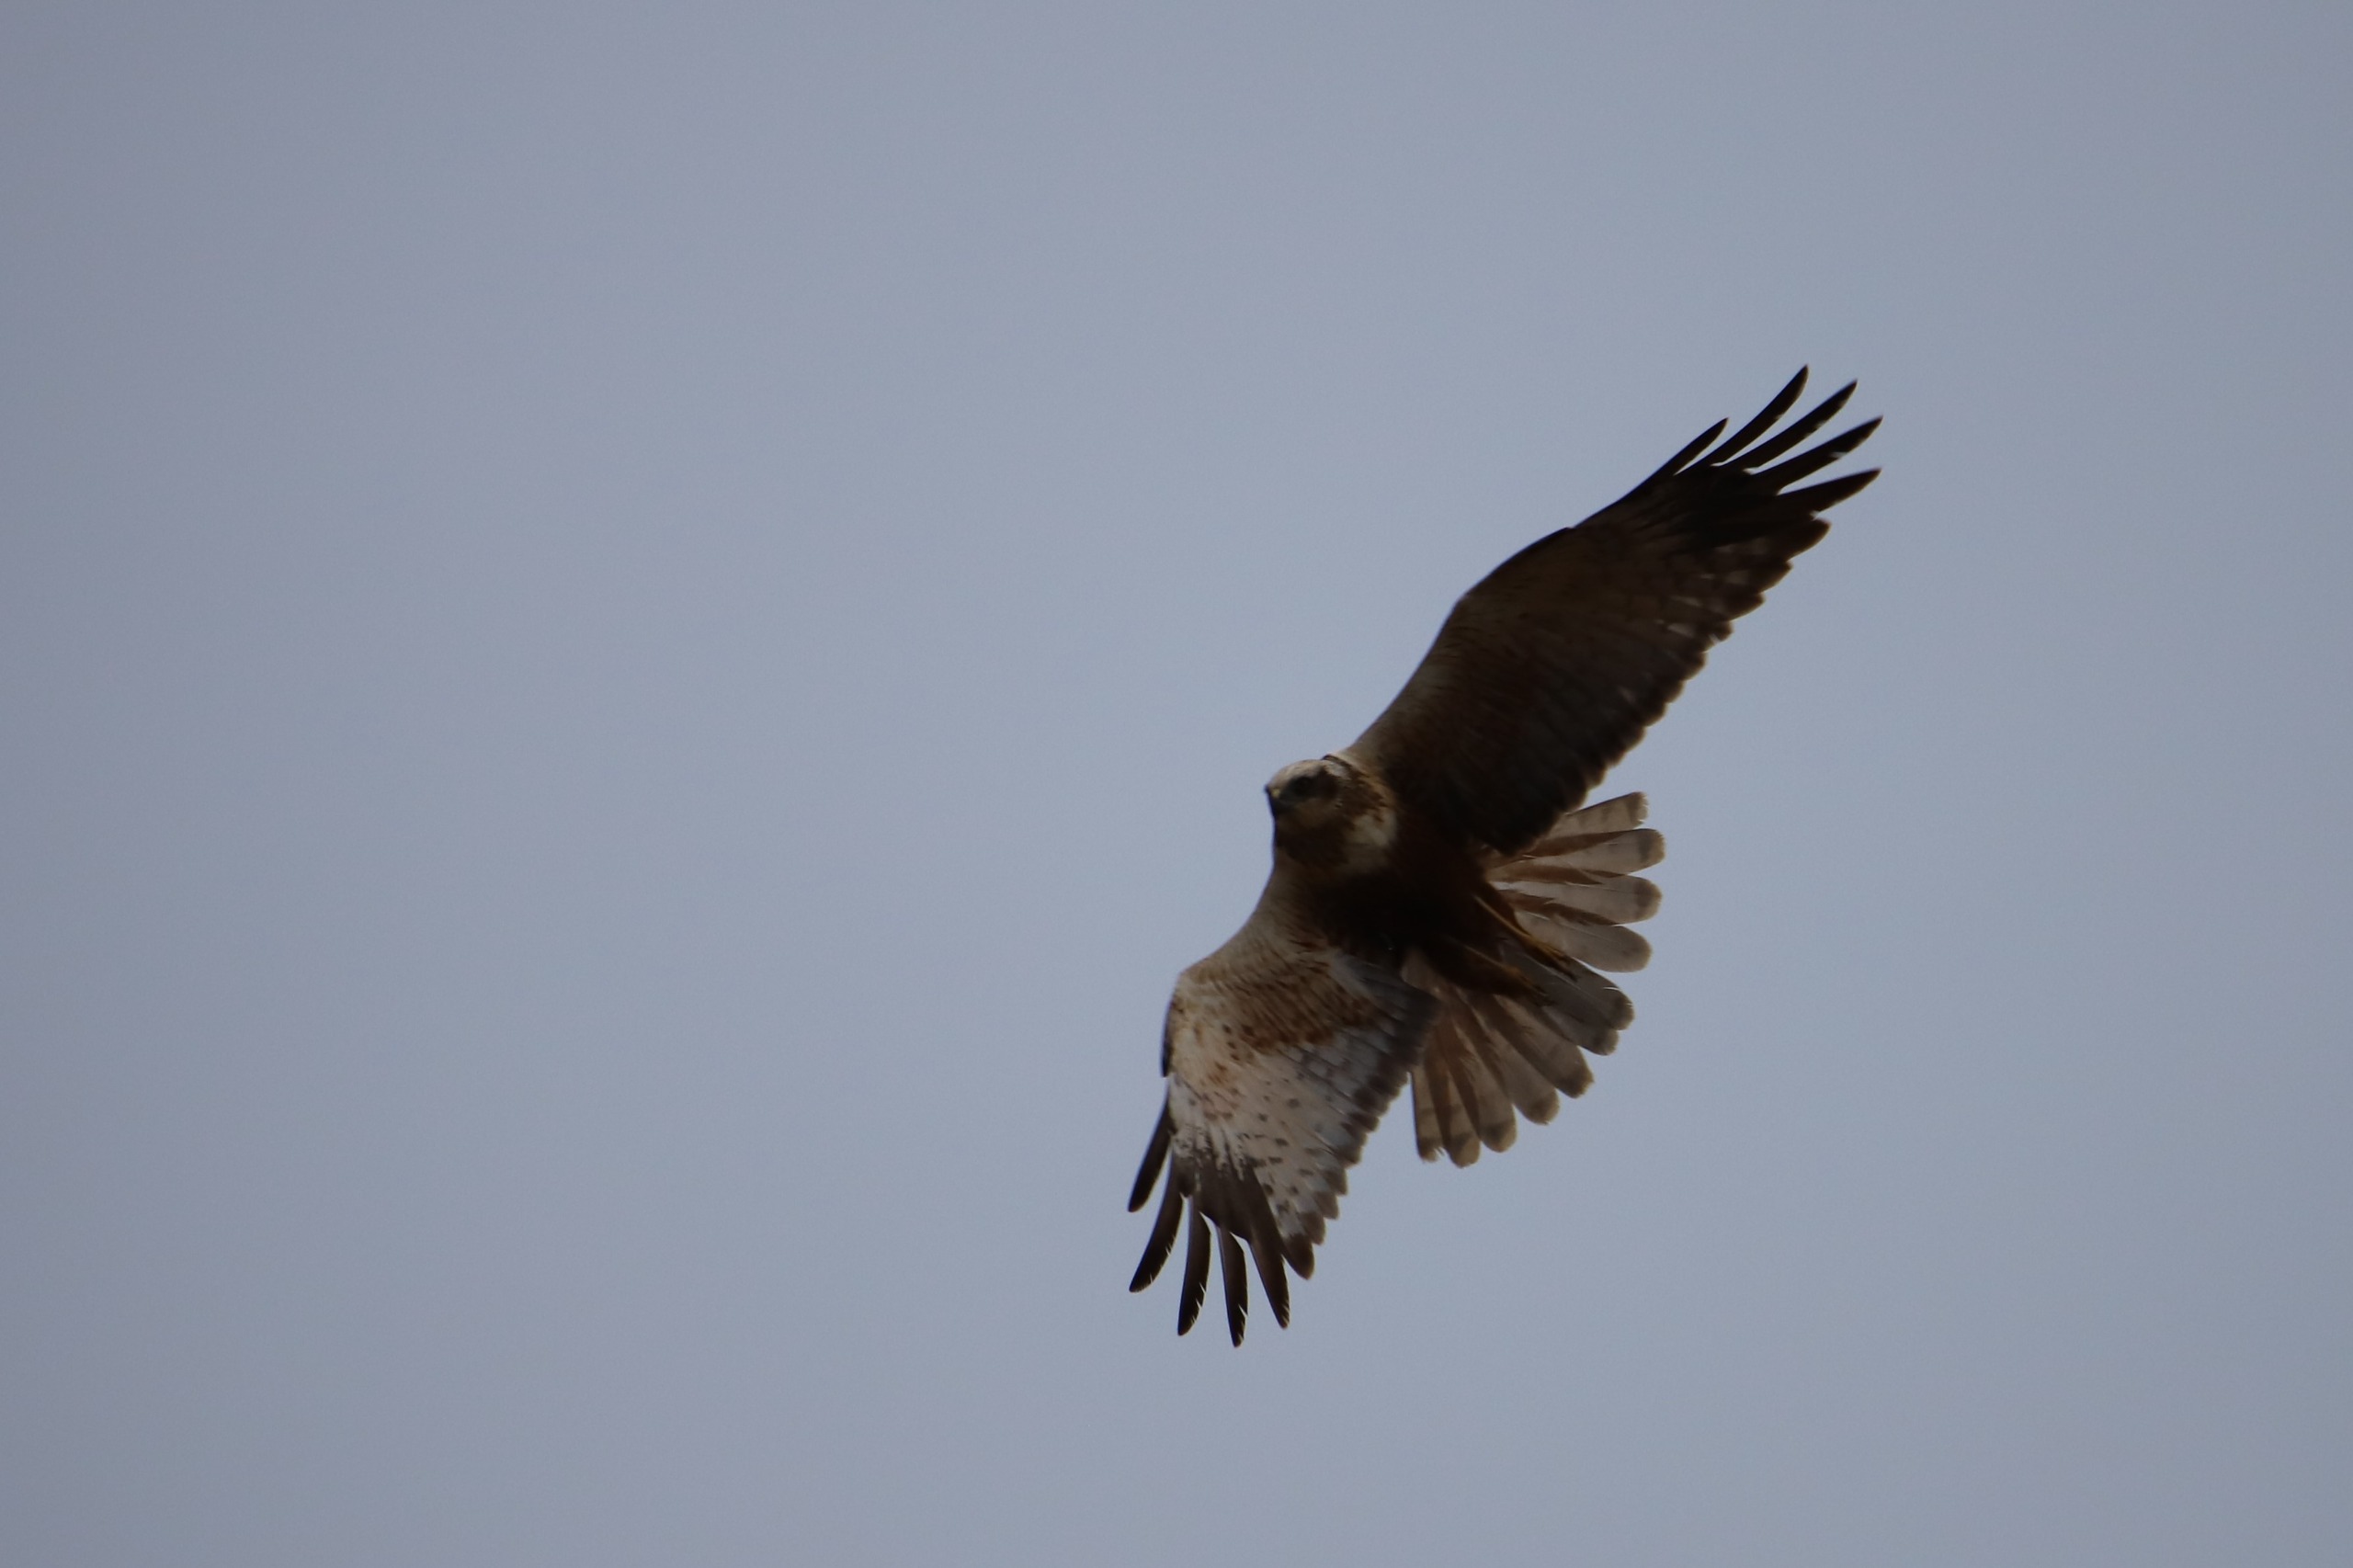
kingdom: Animalia
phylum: Chordata
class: Aves
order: Accipitriformes
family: Accipitridae
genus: Circus
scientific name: Circus aeruginosus
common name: Rørhøg
